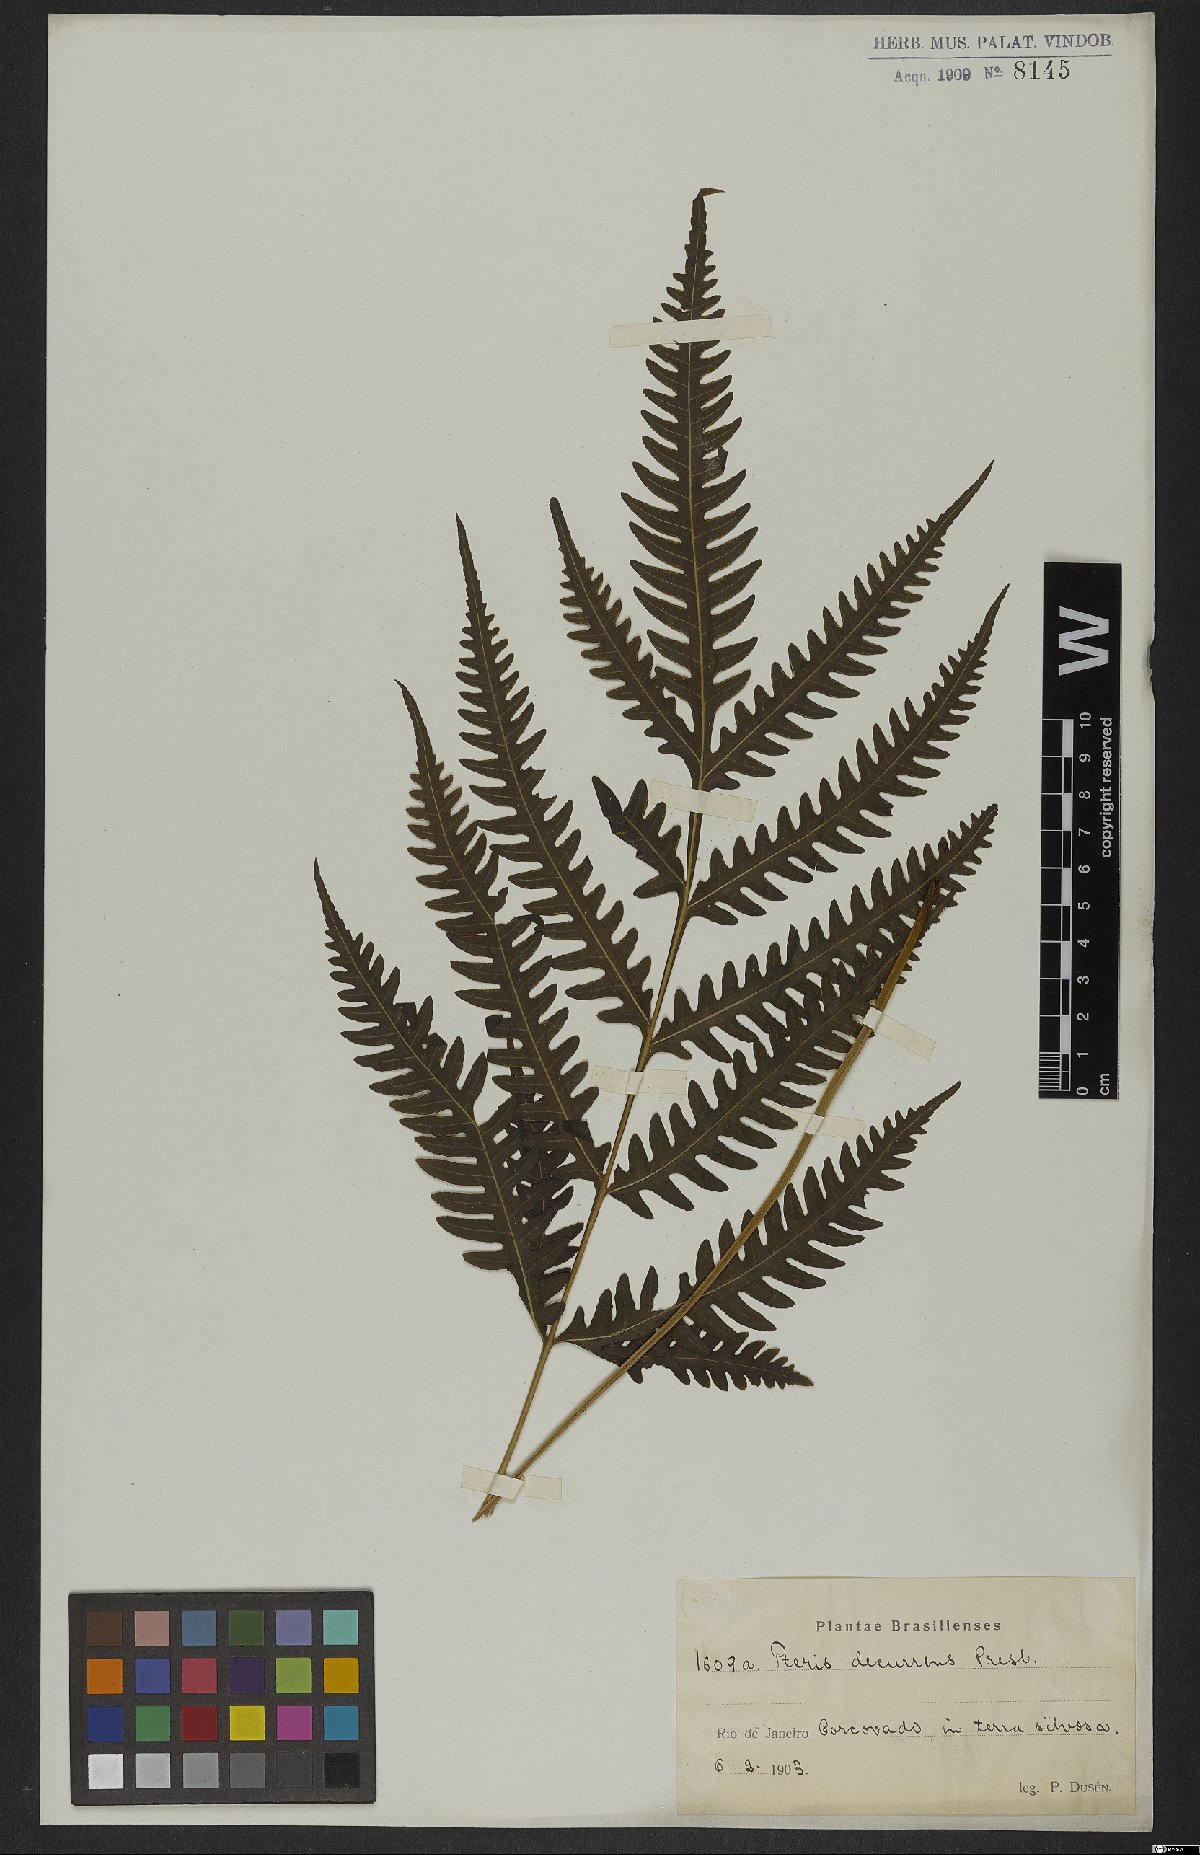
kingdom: Plantae
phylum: Tracheophyta
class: Polypodiopsida
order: Polypodiales
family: Pteridaceae
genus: Pteris
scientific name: Pteris decurrens
